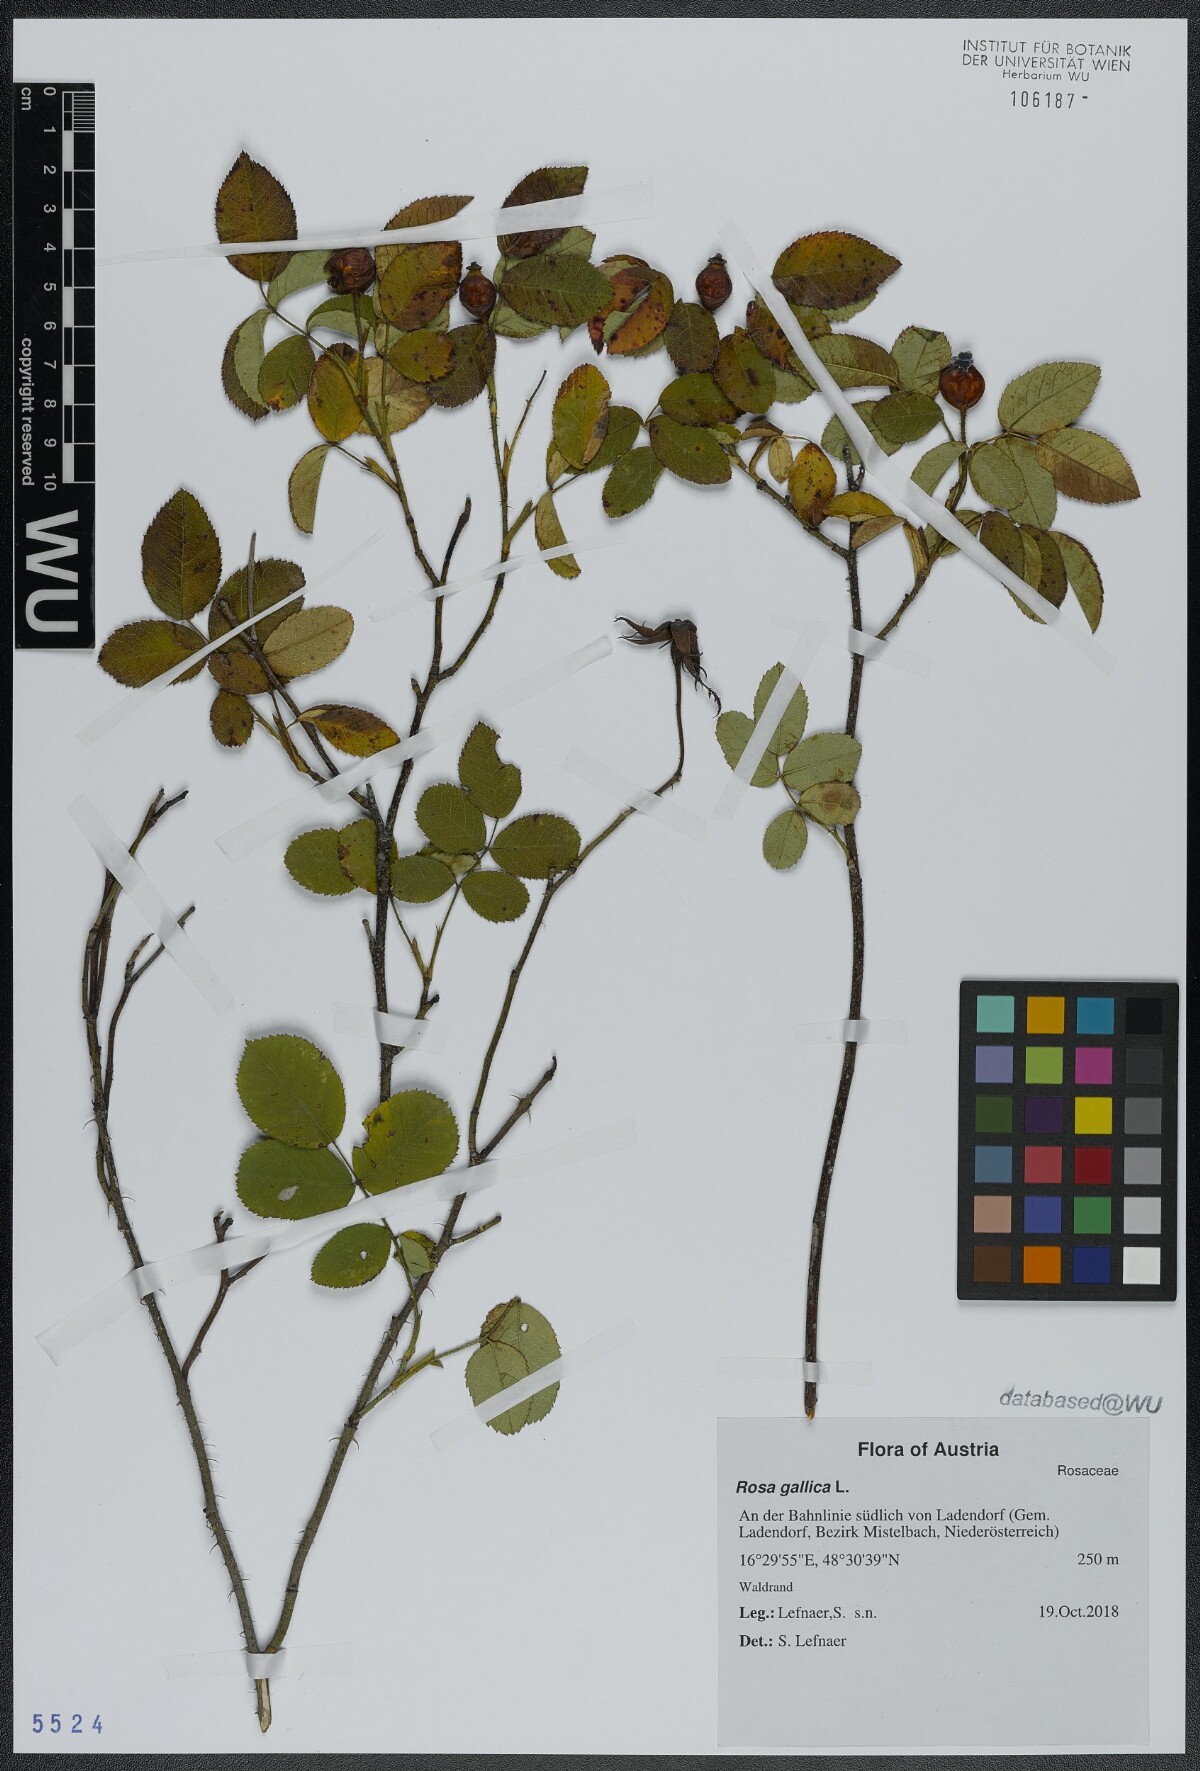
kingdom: Plantae
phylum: Tracheophyta
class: Magnoliopsida
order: Rosales
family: Rosaceae
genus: Rosa
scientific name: Rosa gallica
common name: French rose
